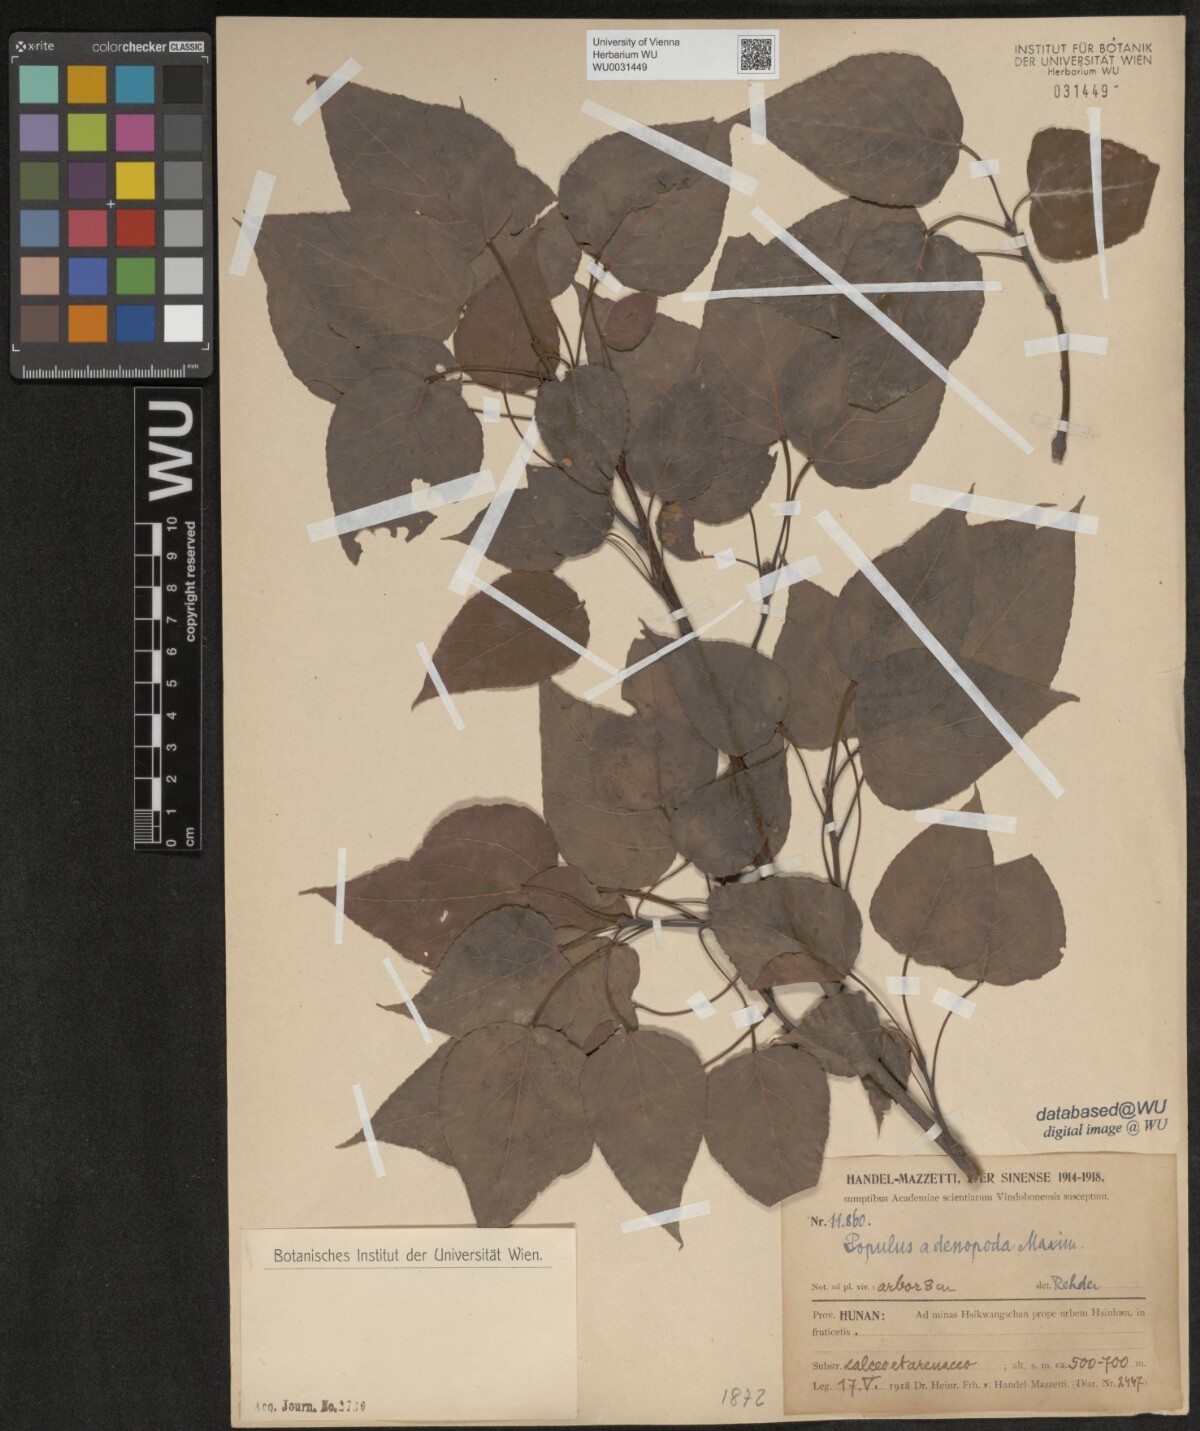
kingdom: Plantae
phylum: Tracheophyta
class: Magnoliopsida
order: Malpighiales
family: Salicaceae
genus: Populus
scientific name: Populus adenopoda
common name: Chinese aspen
